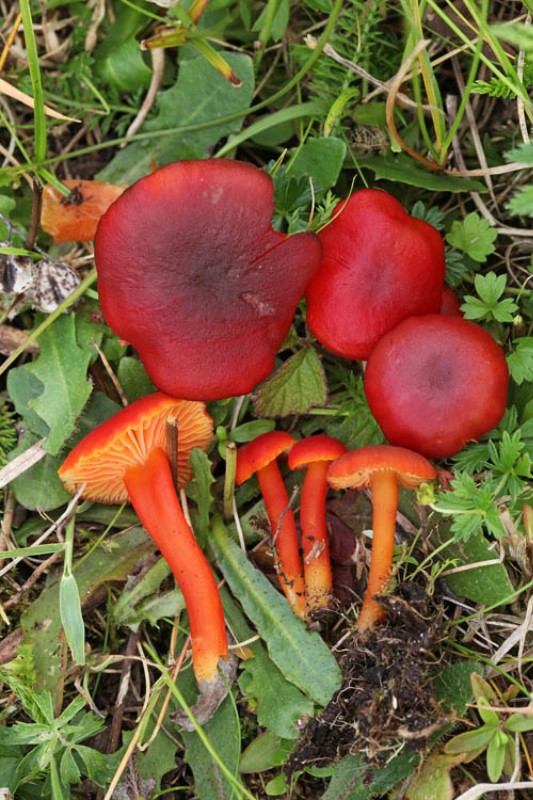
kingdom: Fungi
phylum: Basidiomycota
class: Agaricomycetes
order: Agaricales
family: Hygrophoraceae
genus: Hygrocybe
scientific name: Hygrocybe phaeococcinea
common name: sortdugget vokshat
